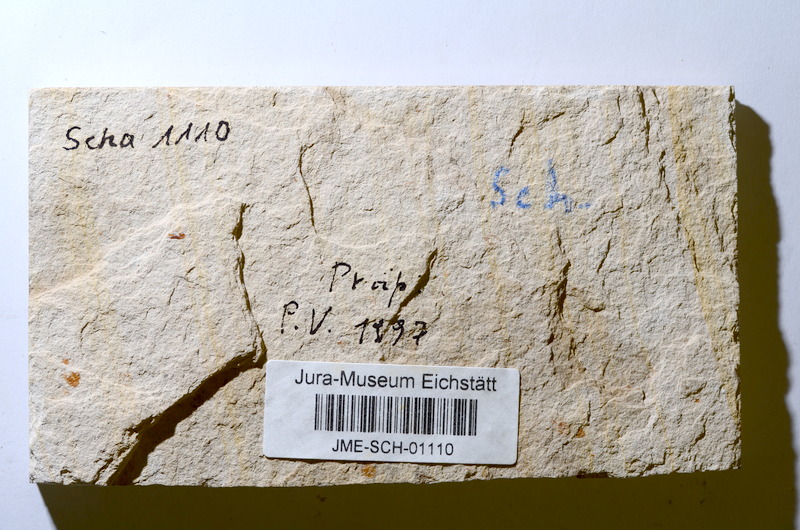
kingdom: Animalia
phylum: Chordata
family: Ascalaboidae
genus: Tharsis
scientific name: Tharsis dubius
